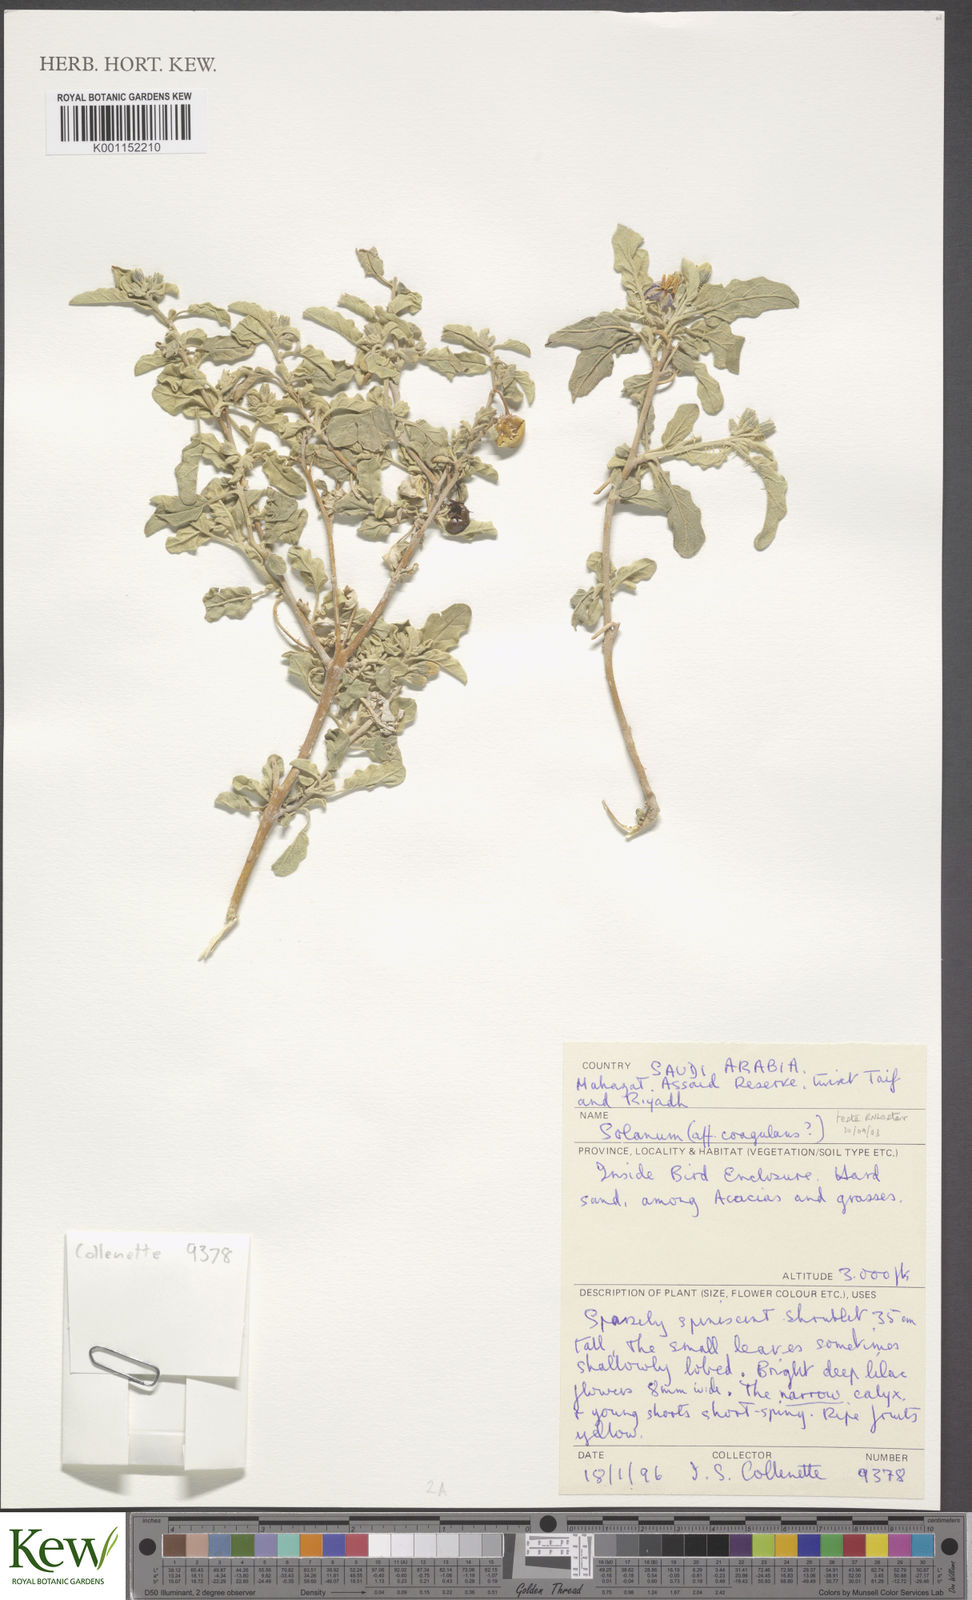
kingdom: Plantae
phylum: Tracheophyta
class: Magnoliopsida
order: Solanales
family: Solanaceae
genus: Solanum
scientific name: Solanum
